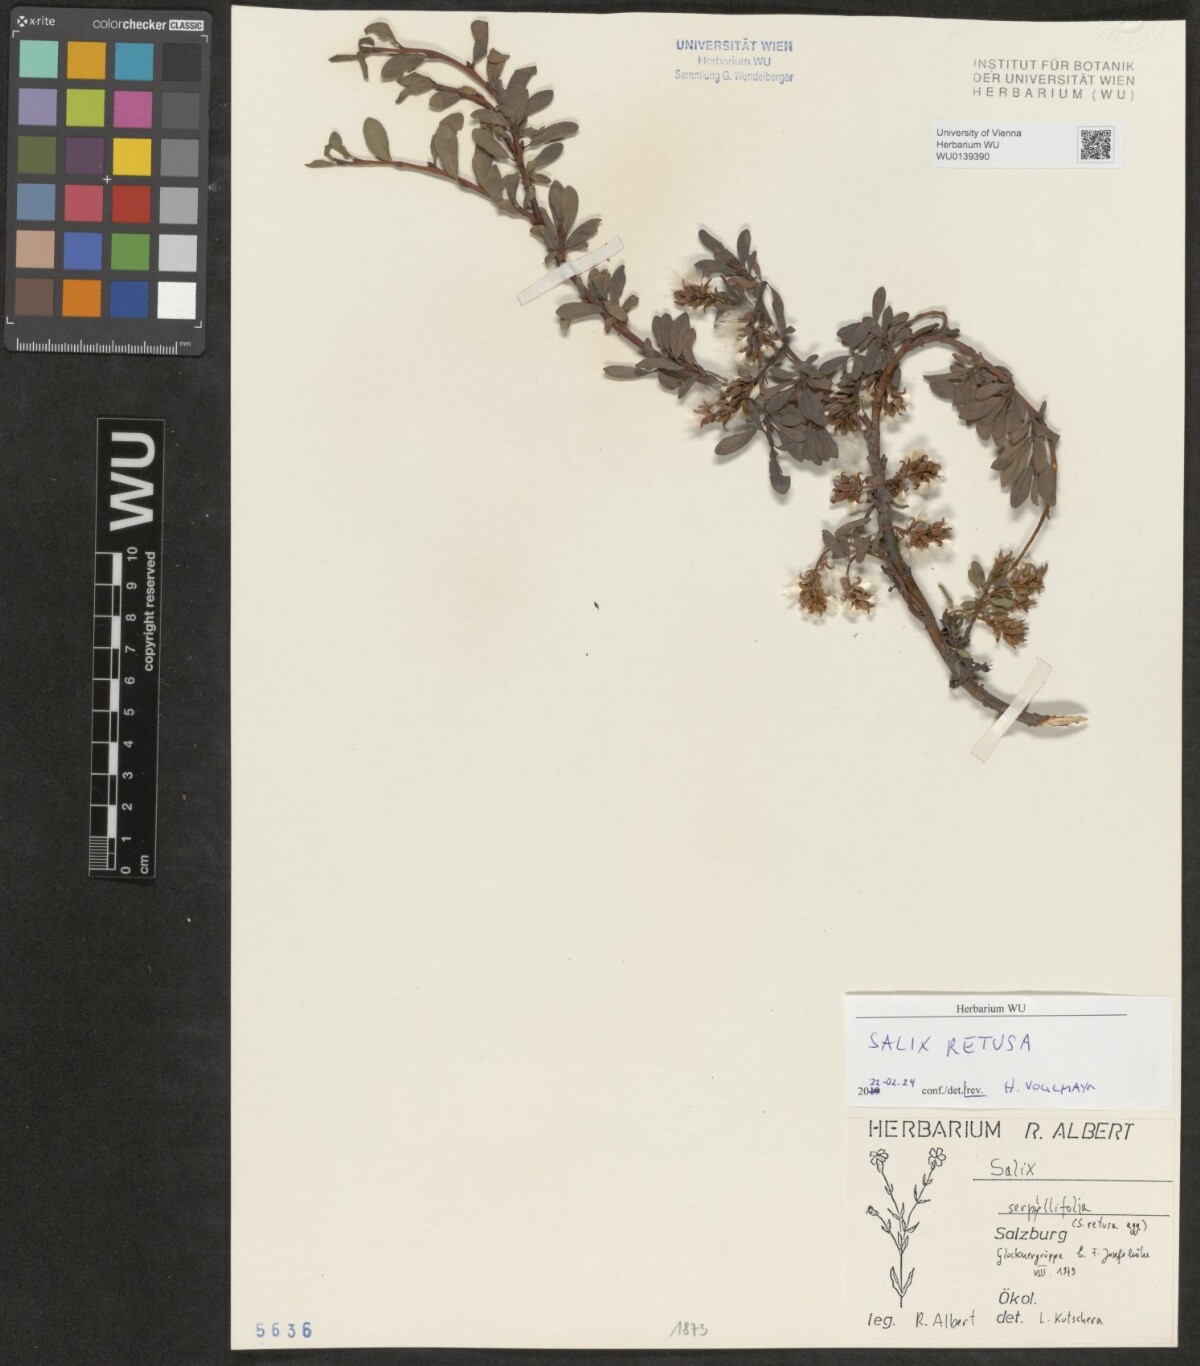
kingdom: Plantae
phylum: Tracheophyta
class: Magnoliopsida
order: Malpighiales
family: Salicaceae
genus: Salix
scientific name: Salix retusa
